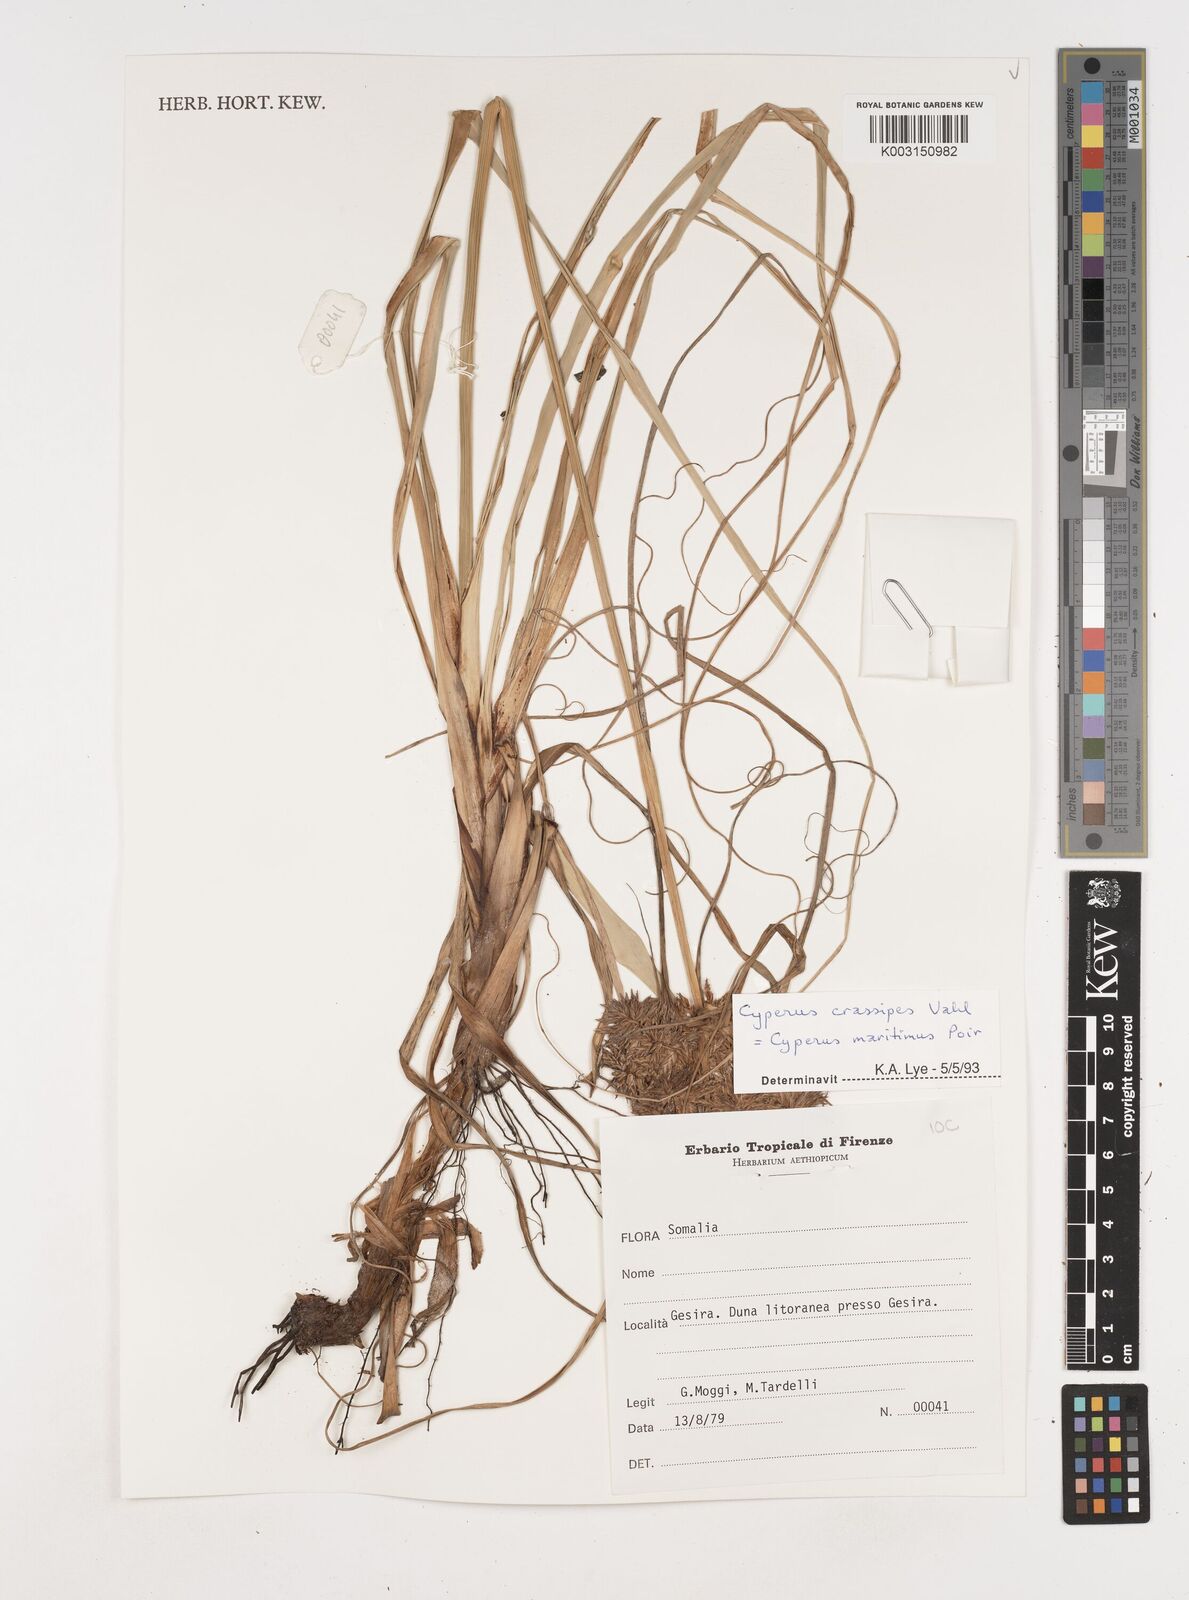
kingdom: Plantae
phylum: Tracheophyta
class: Liliopsida
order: Poales
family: Cyperaceae
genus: Cyperus
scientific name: Cyperus crassipes
